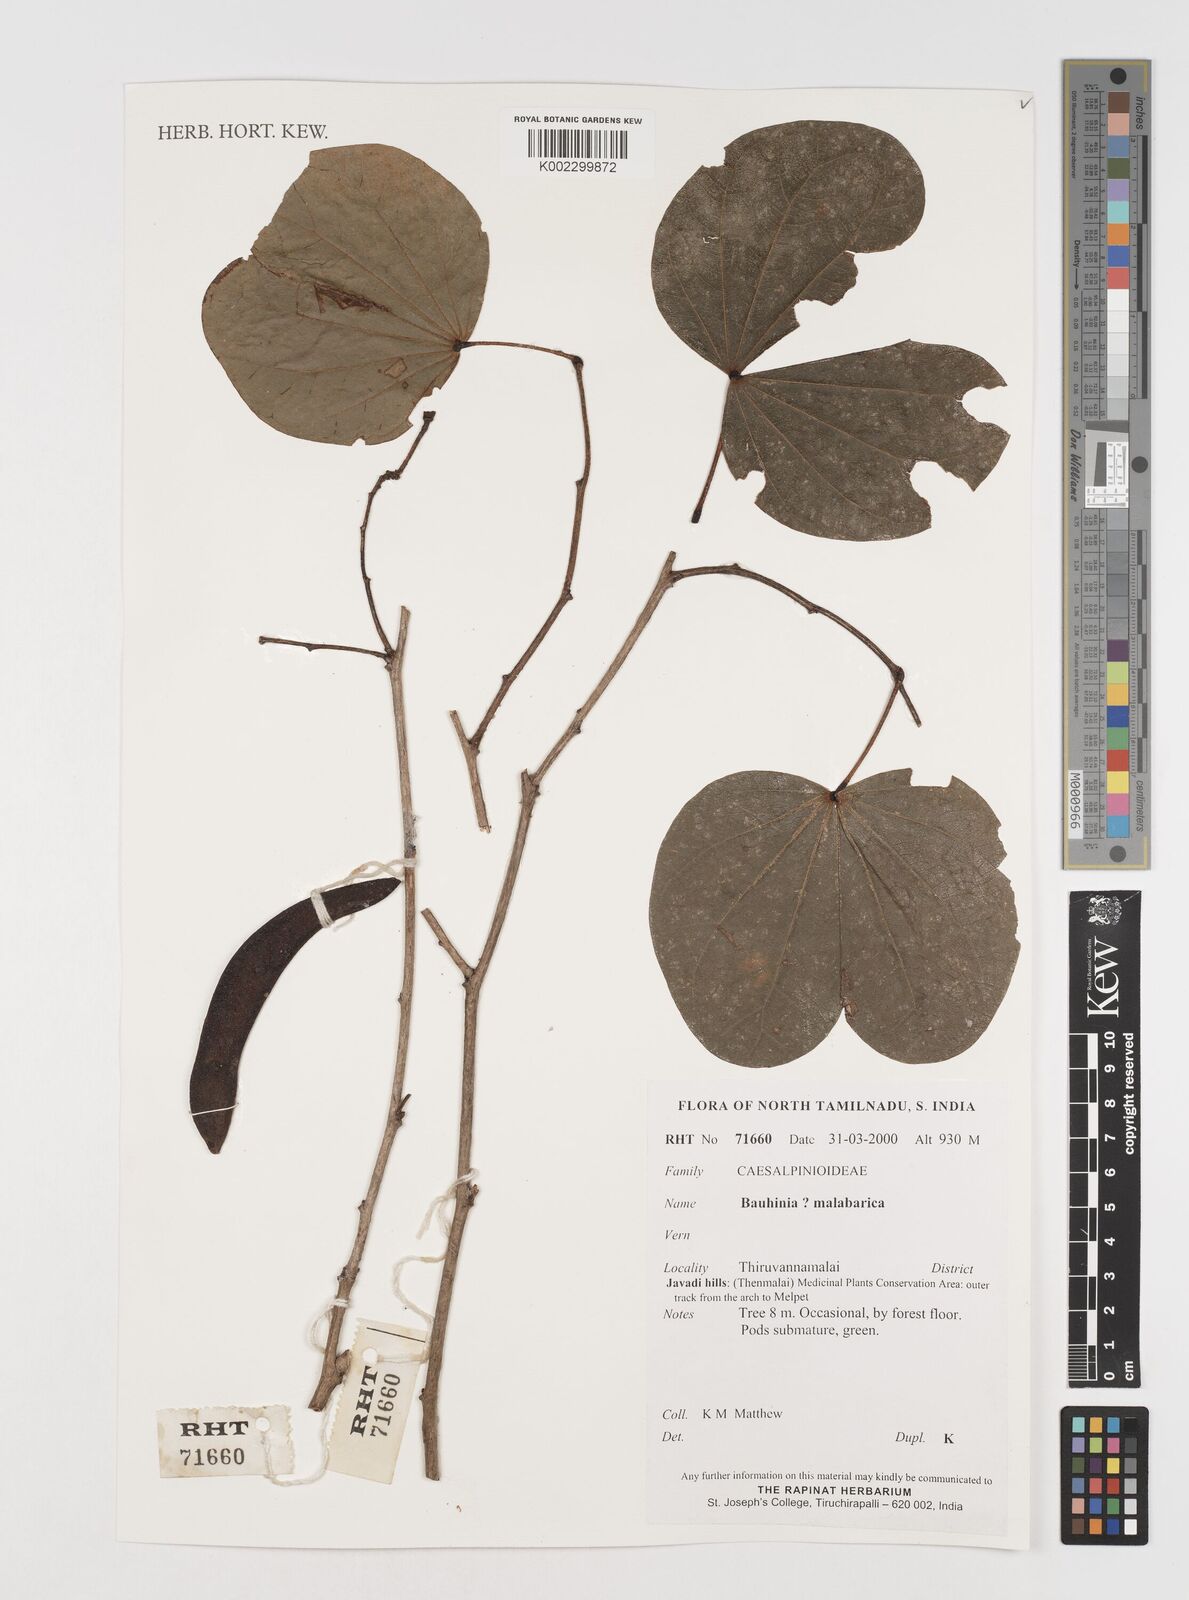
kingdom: Plantae
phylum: Tracheophyta
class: Magnoliopsida
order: Fabales
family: Fabaceae
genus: Piliostigma
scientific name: Piliostigma malabaricum
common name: Malabar bauhinia
